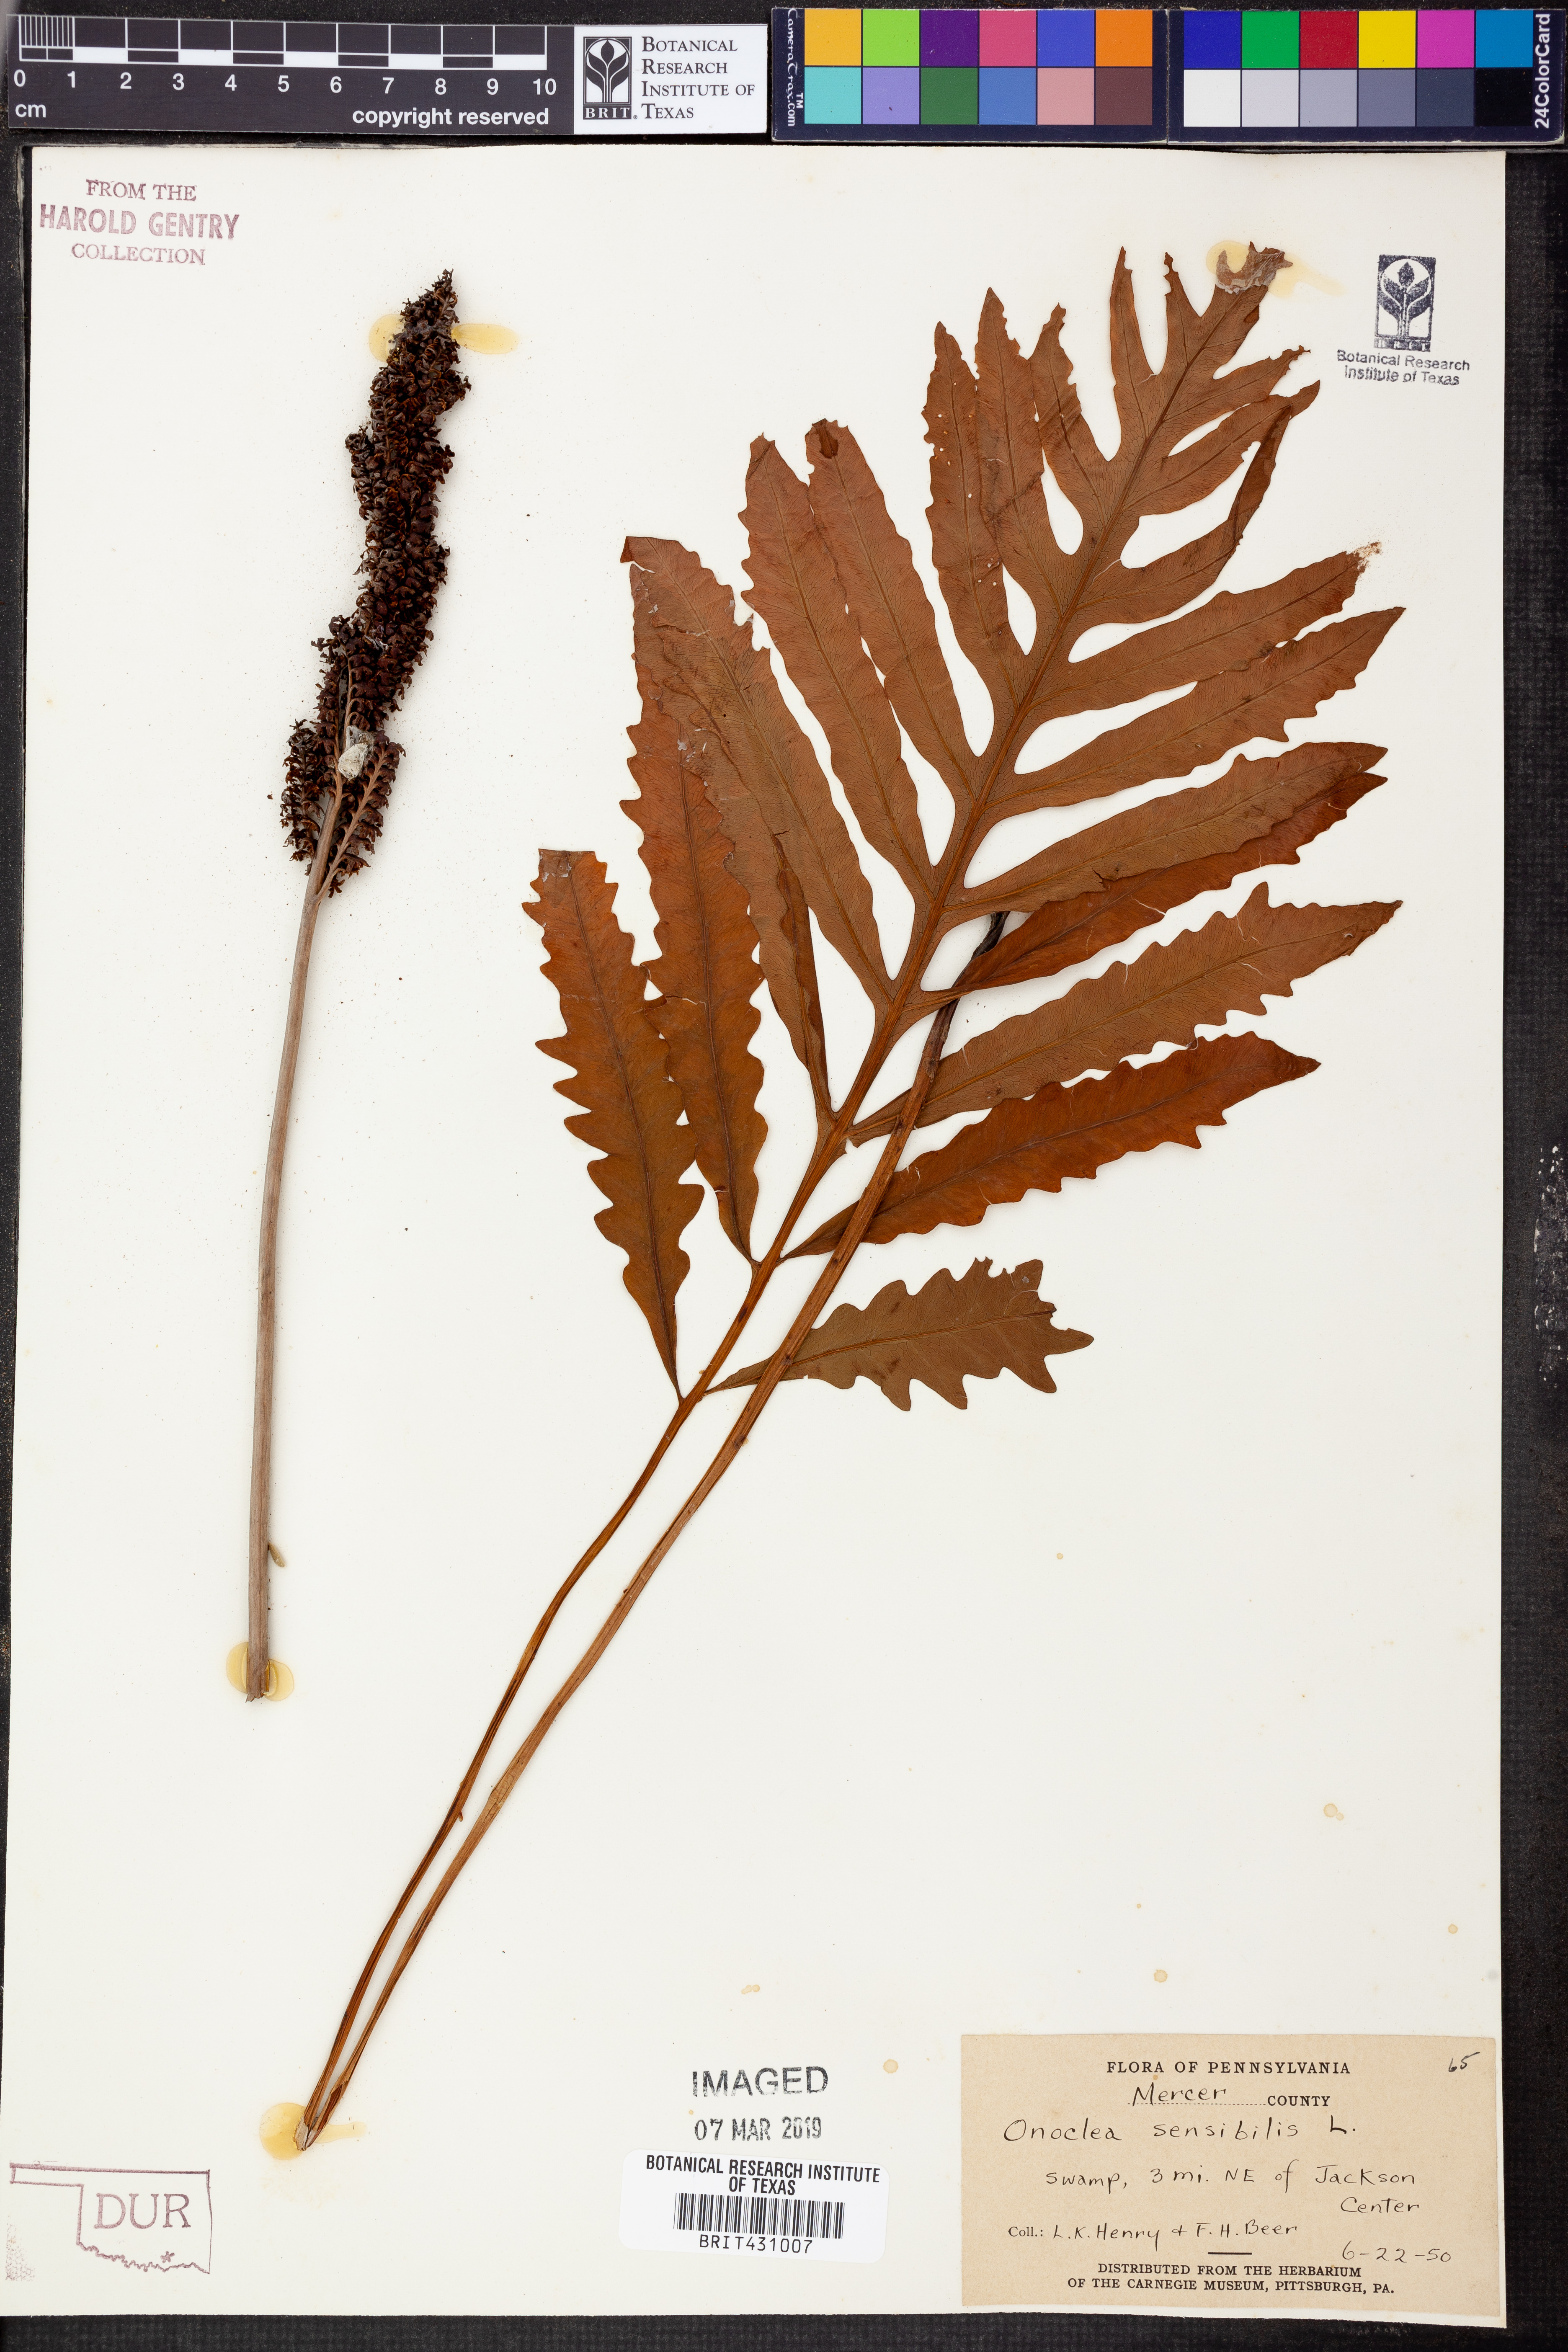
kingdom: Plantae
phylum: Tracheophyta
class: Polypodiopsida
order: Polypodiales
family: Onocleaceae
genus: Onoclea
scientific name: Onoclea sensibilis
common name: Sensitive fern
